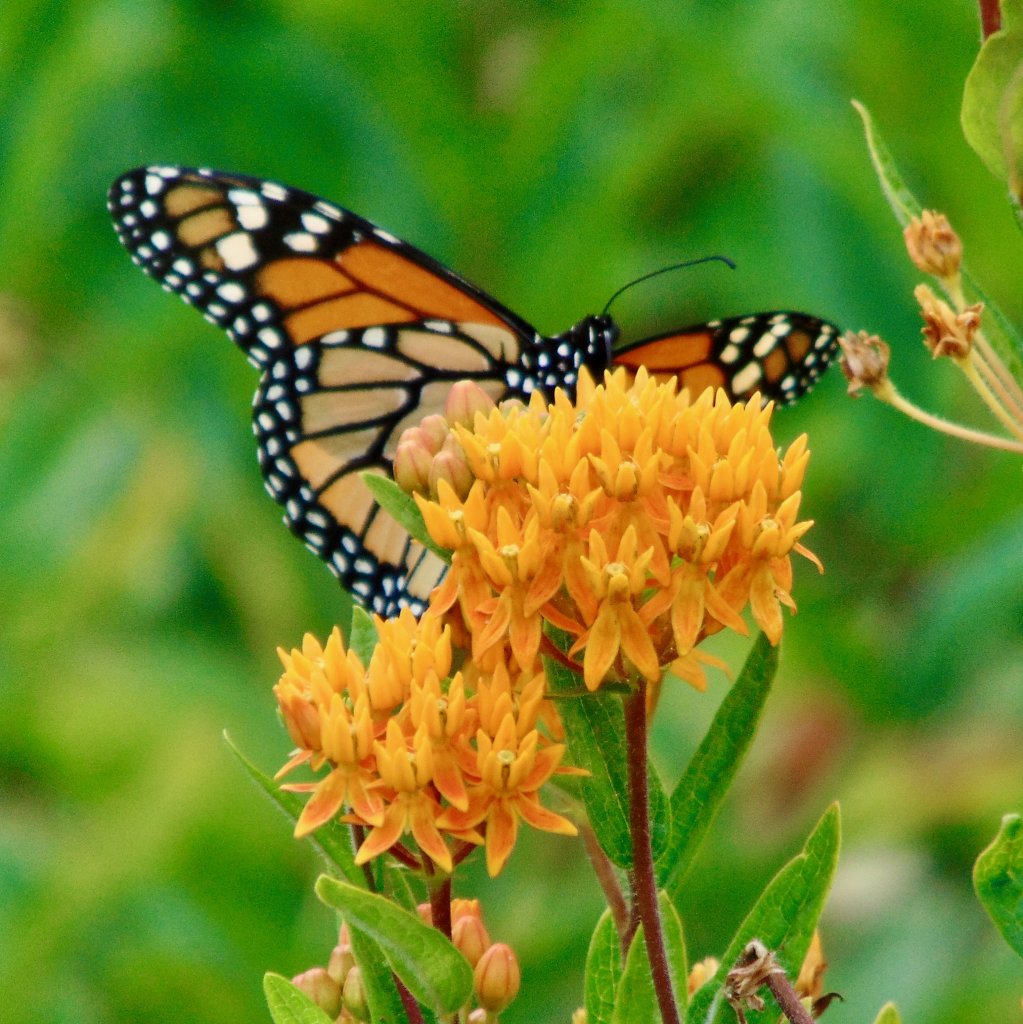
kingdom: Animalia
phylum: Arthropoda
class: Insecta
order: Lepidoptera
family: Nymphalidae
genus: Danaus
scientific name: Danaus plexippus
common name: Monarch
